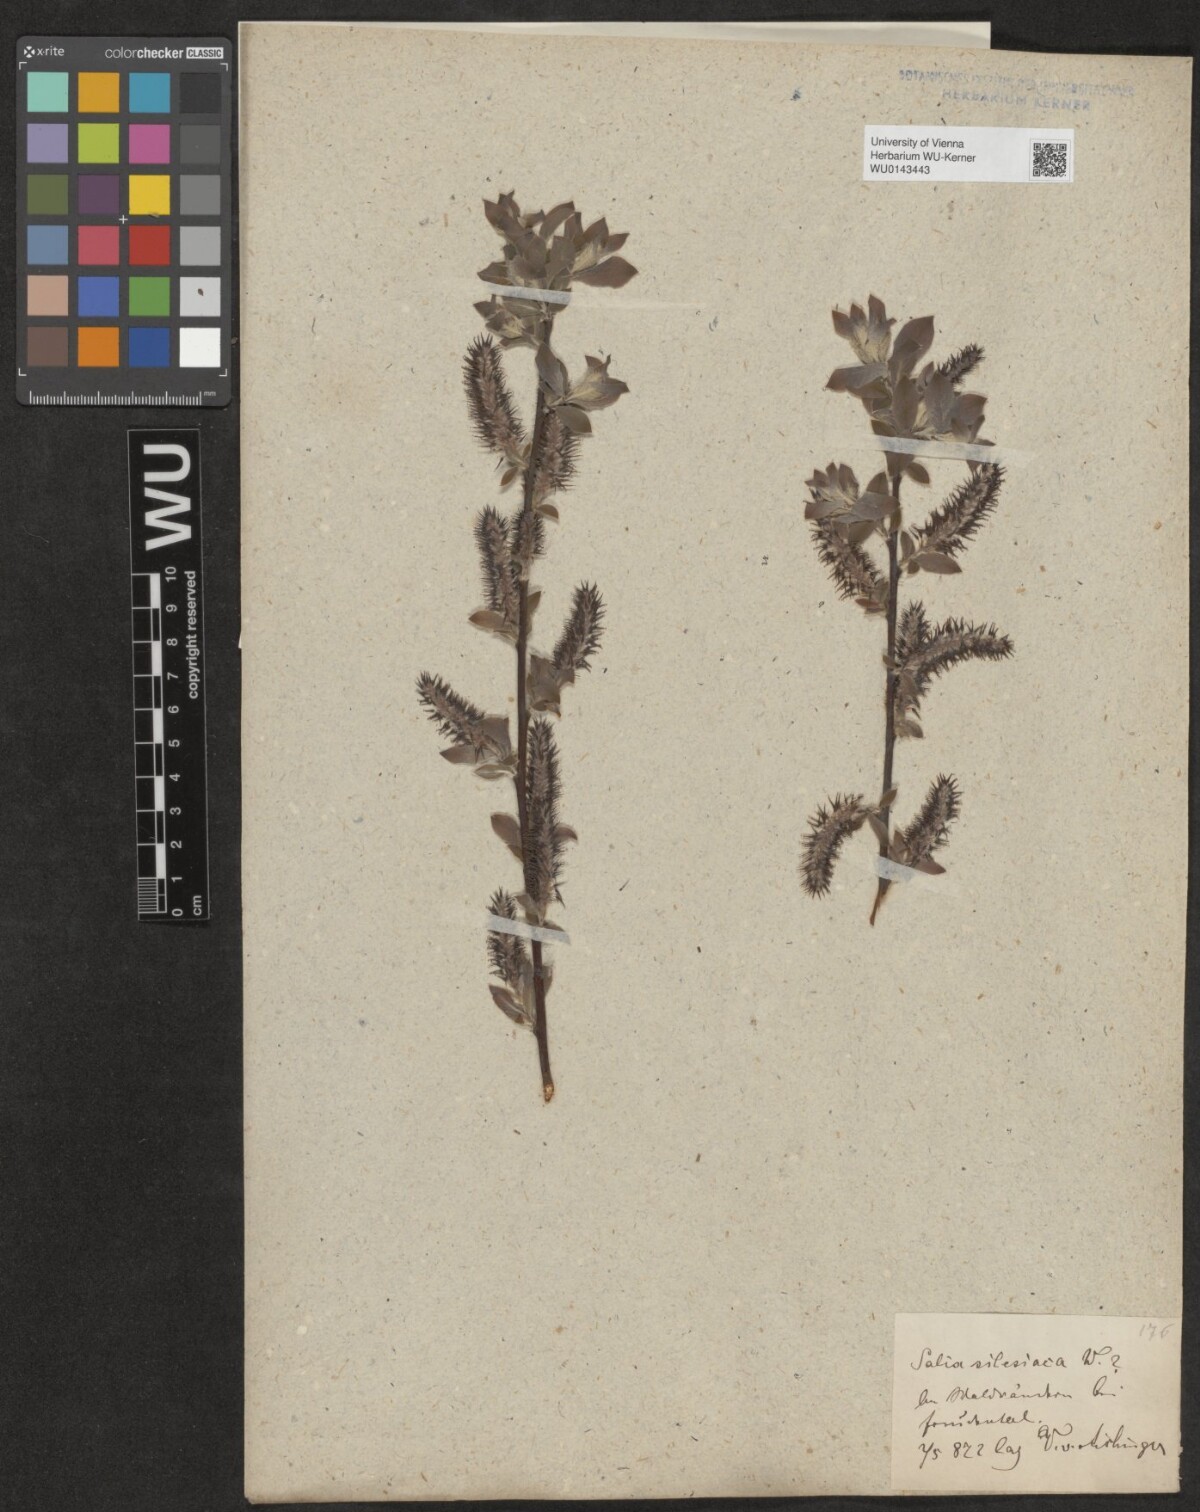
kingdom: Plantae
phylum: Tracheophyta
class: Magnoliopsida
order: Malpighiales
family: Salicaceae
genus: Salix
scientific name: Salix silesiaca
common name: Silesian willow
